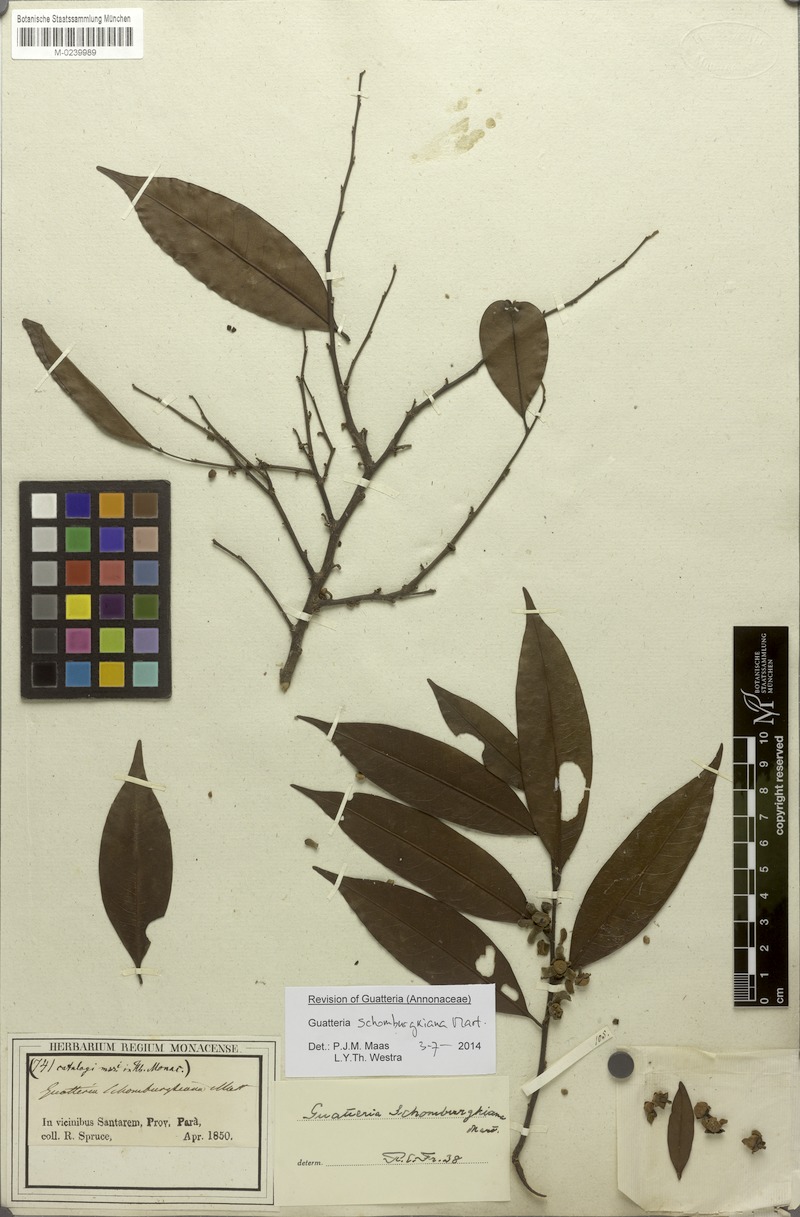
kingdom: Plantae
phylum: Tracheophyta
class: Magnoliopsida
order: Magnoliales
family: Annonaceae
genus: Guatteria
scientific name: Guatteria schomburgkiana
